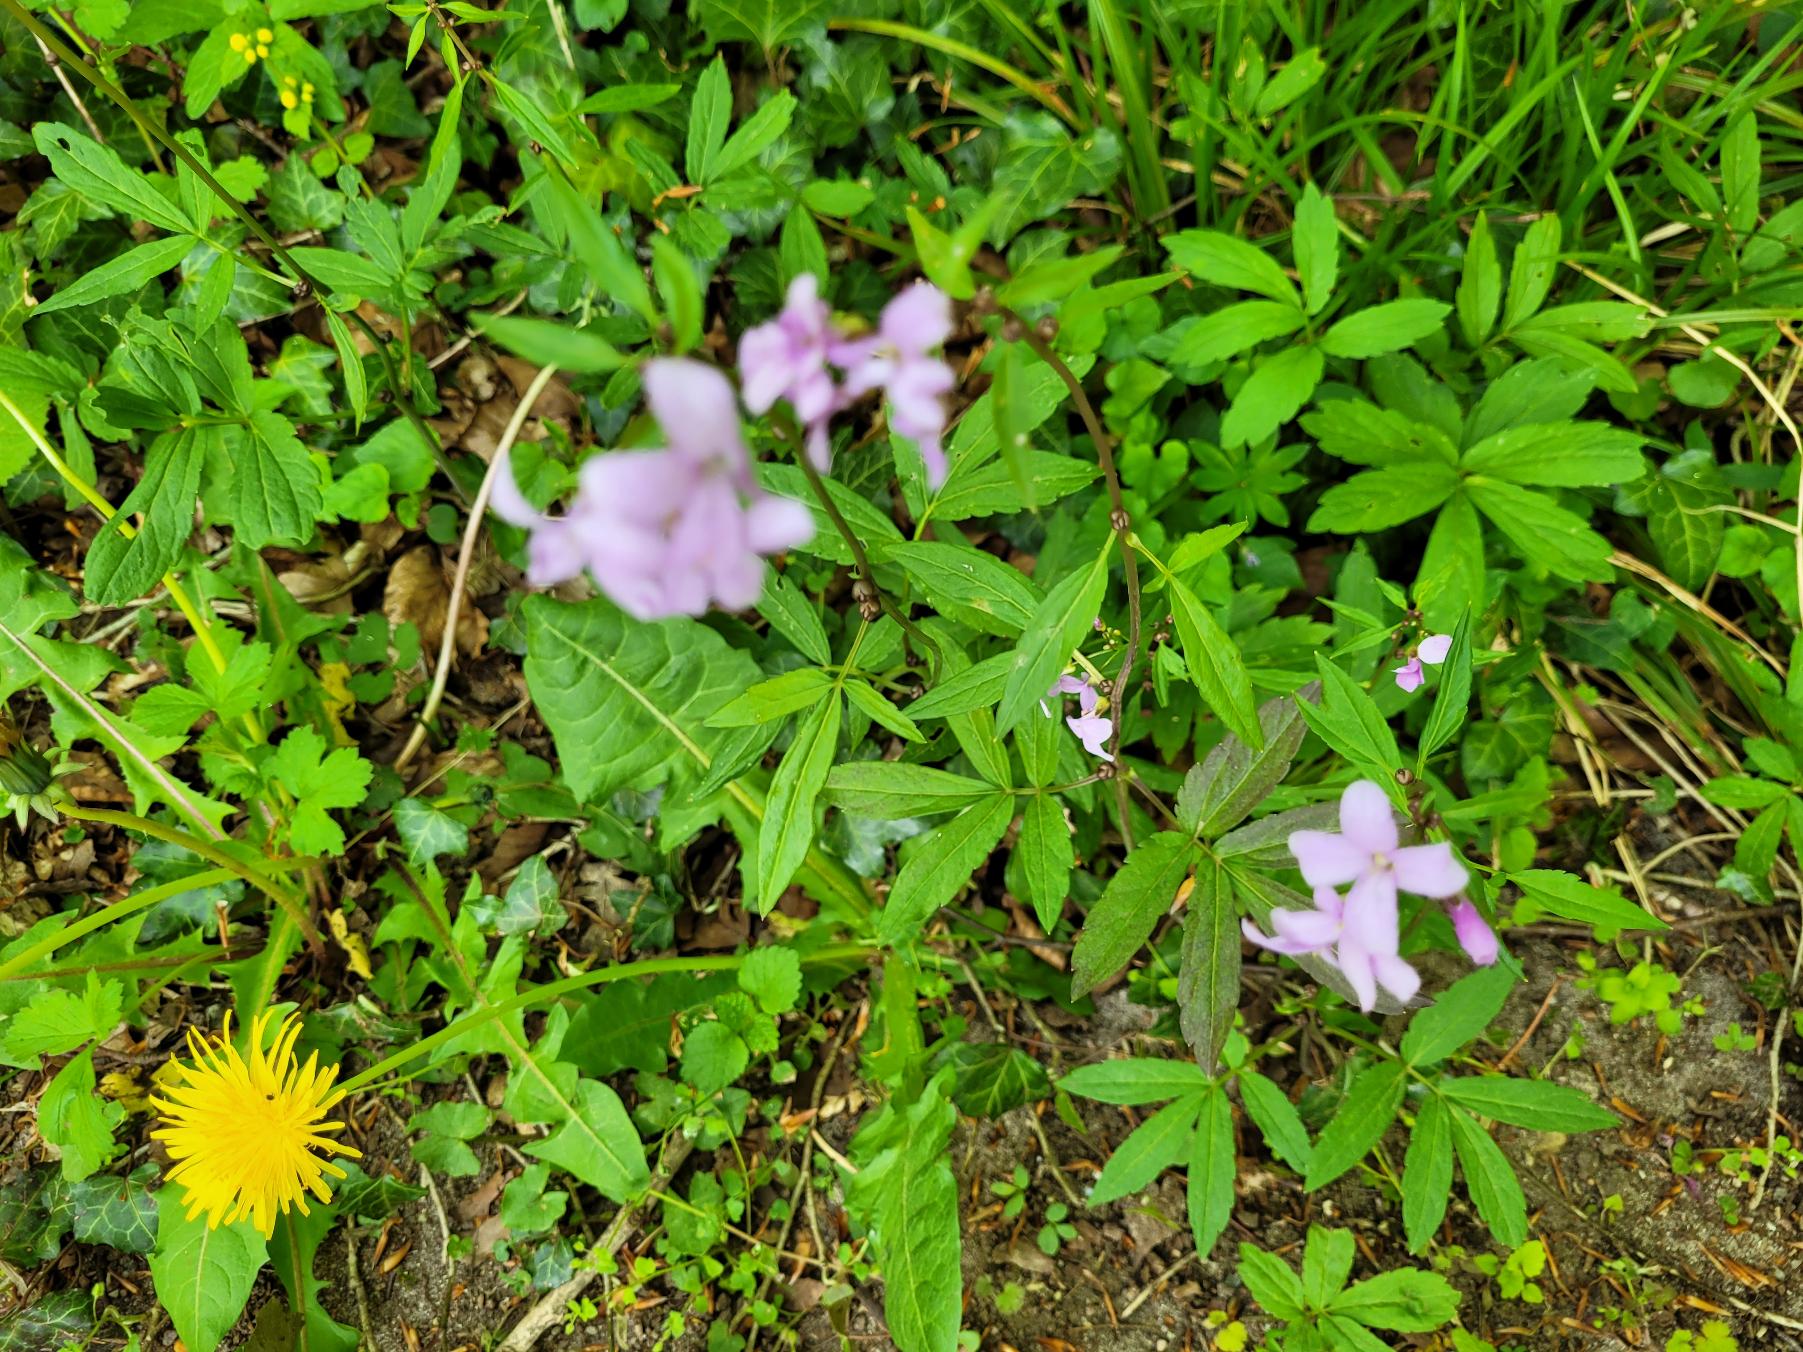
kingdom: Plantae
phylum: Tracheophyta
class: Magnoliopsida
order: Brassicales
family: Brassicaceae
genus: Cardamine
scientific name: Cardamine bulbifera
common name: Tandrod
